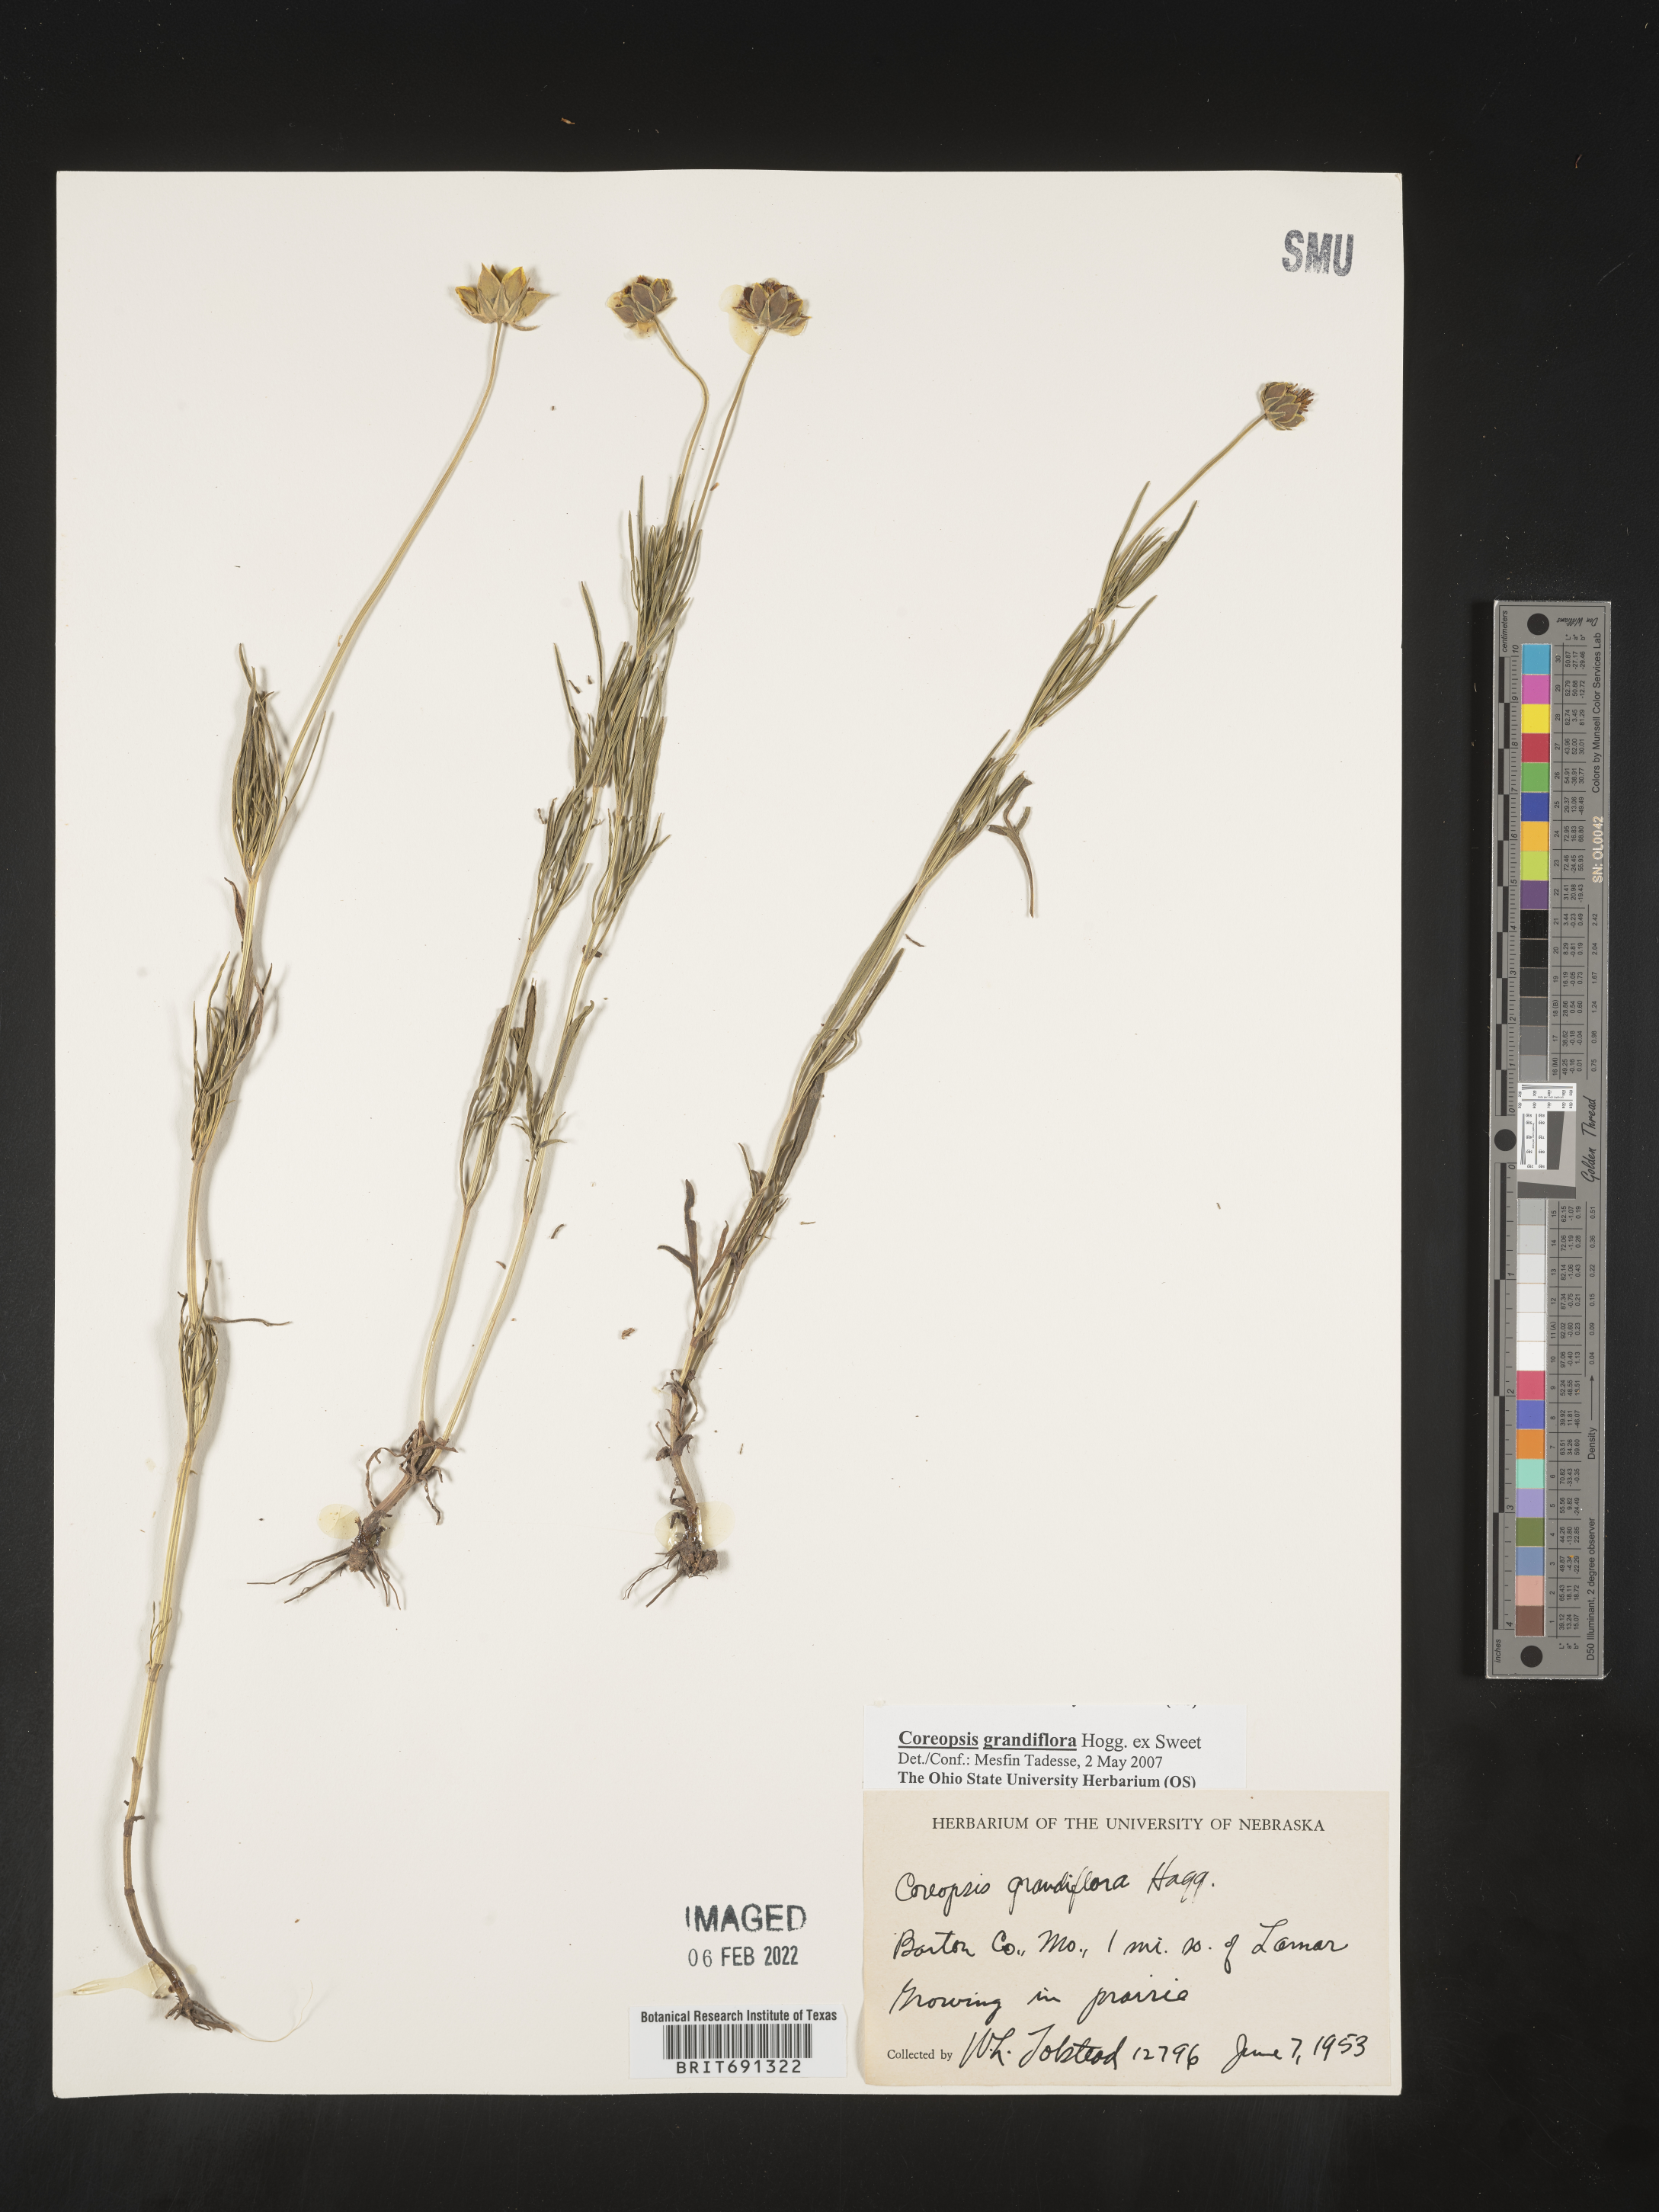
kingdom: Plantae
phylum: Tracheophyta
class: Magnoliopsida
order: Asterales
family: Asteraceae
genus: Coreopsis
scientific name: Coreopsis grandiflora
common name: Large-flowered tickseed
